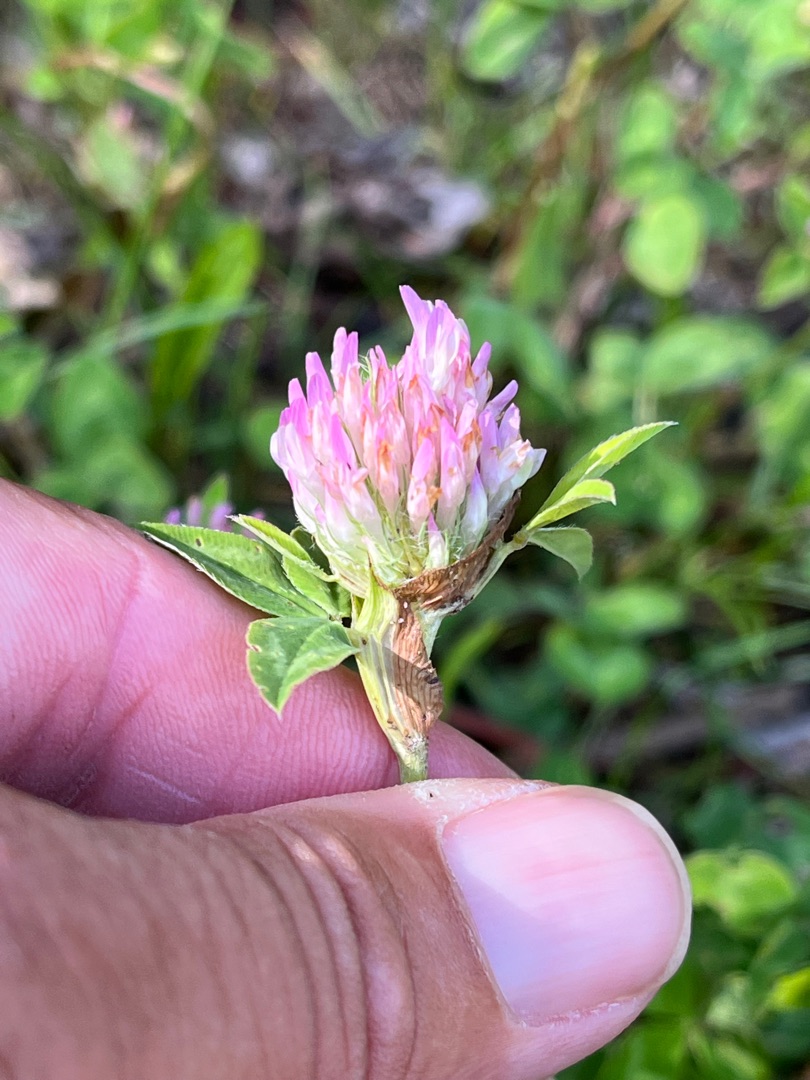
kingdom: Plantae
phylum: Tracheophyta
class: Magnoliopsida
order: Fabales
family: Fabaceae
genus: Trifolium
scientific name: Trifolium pratense
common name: Rød-kløver
